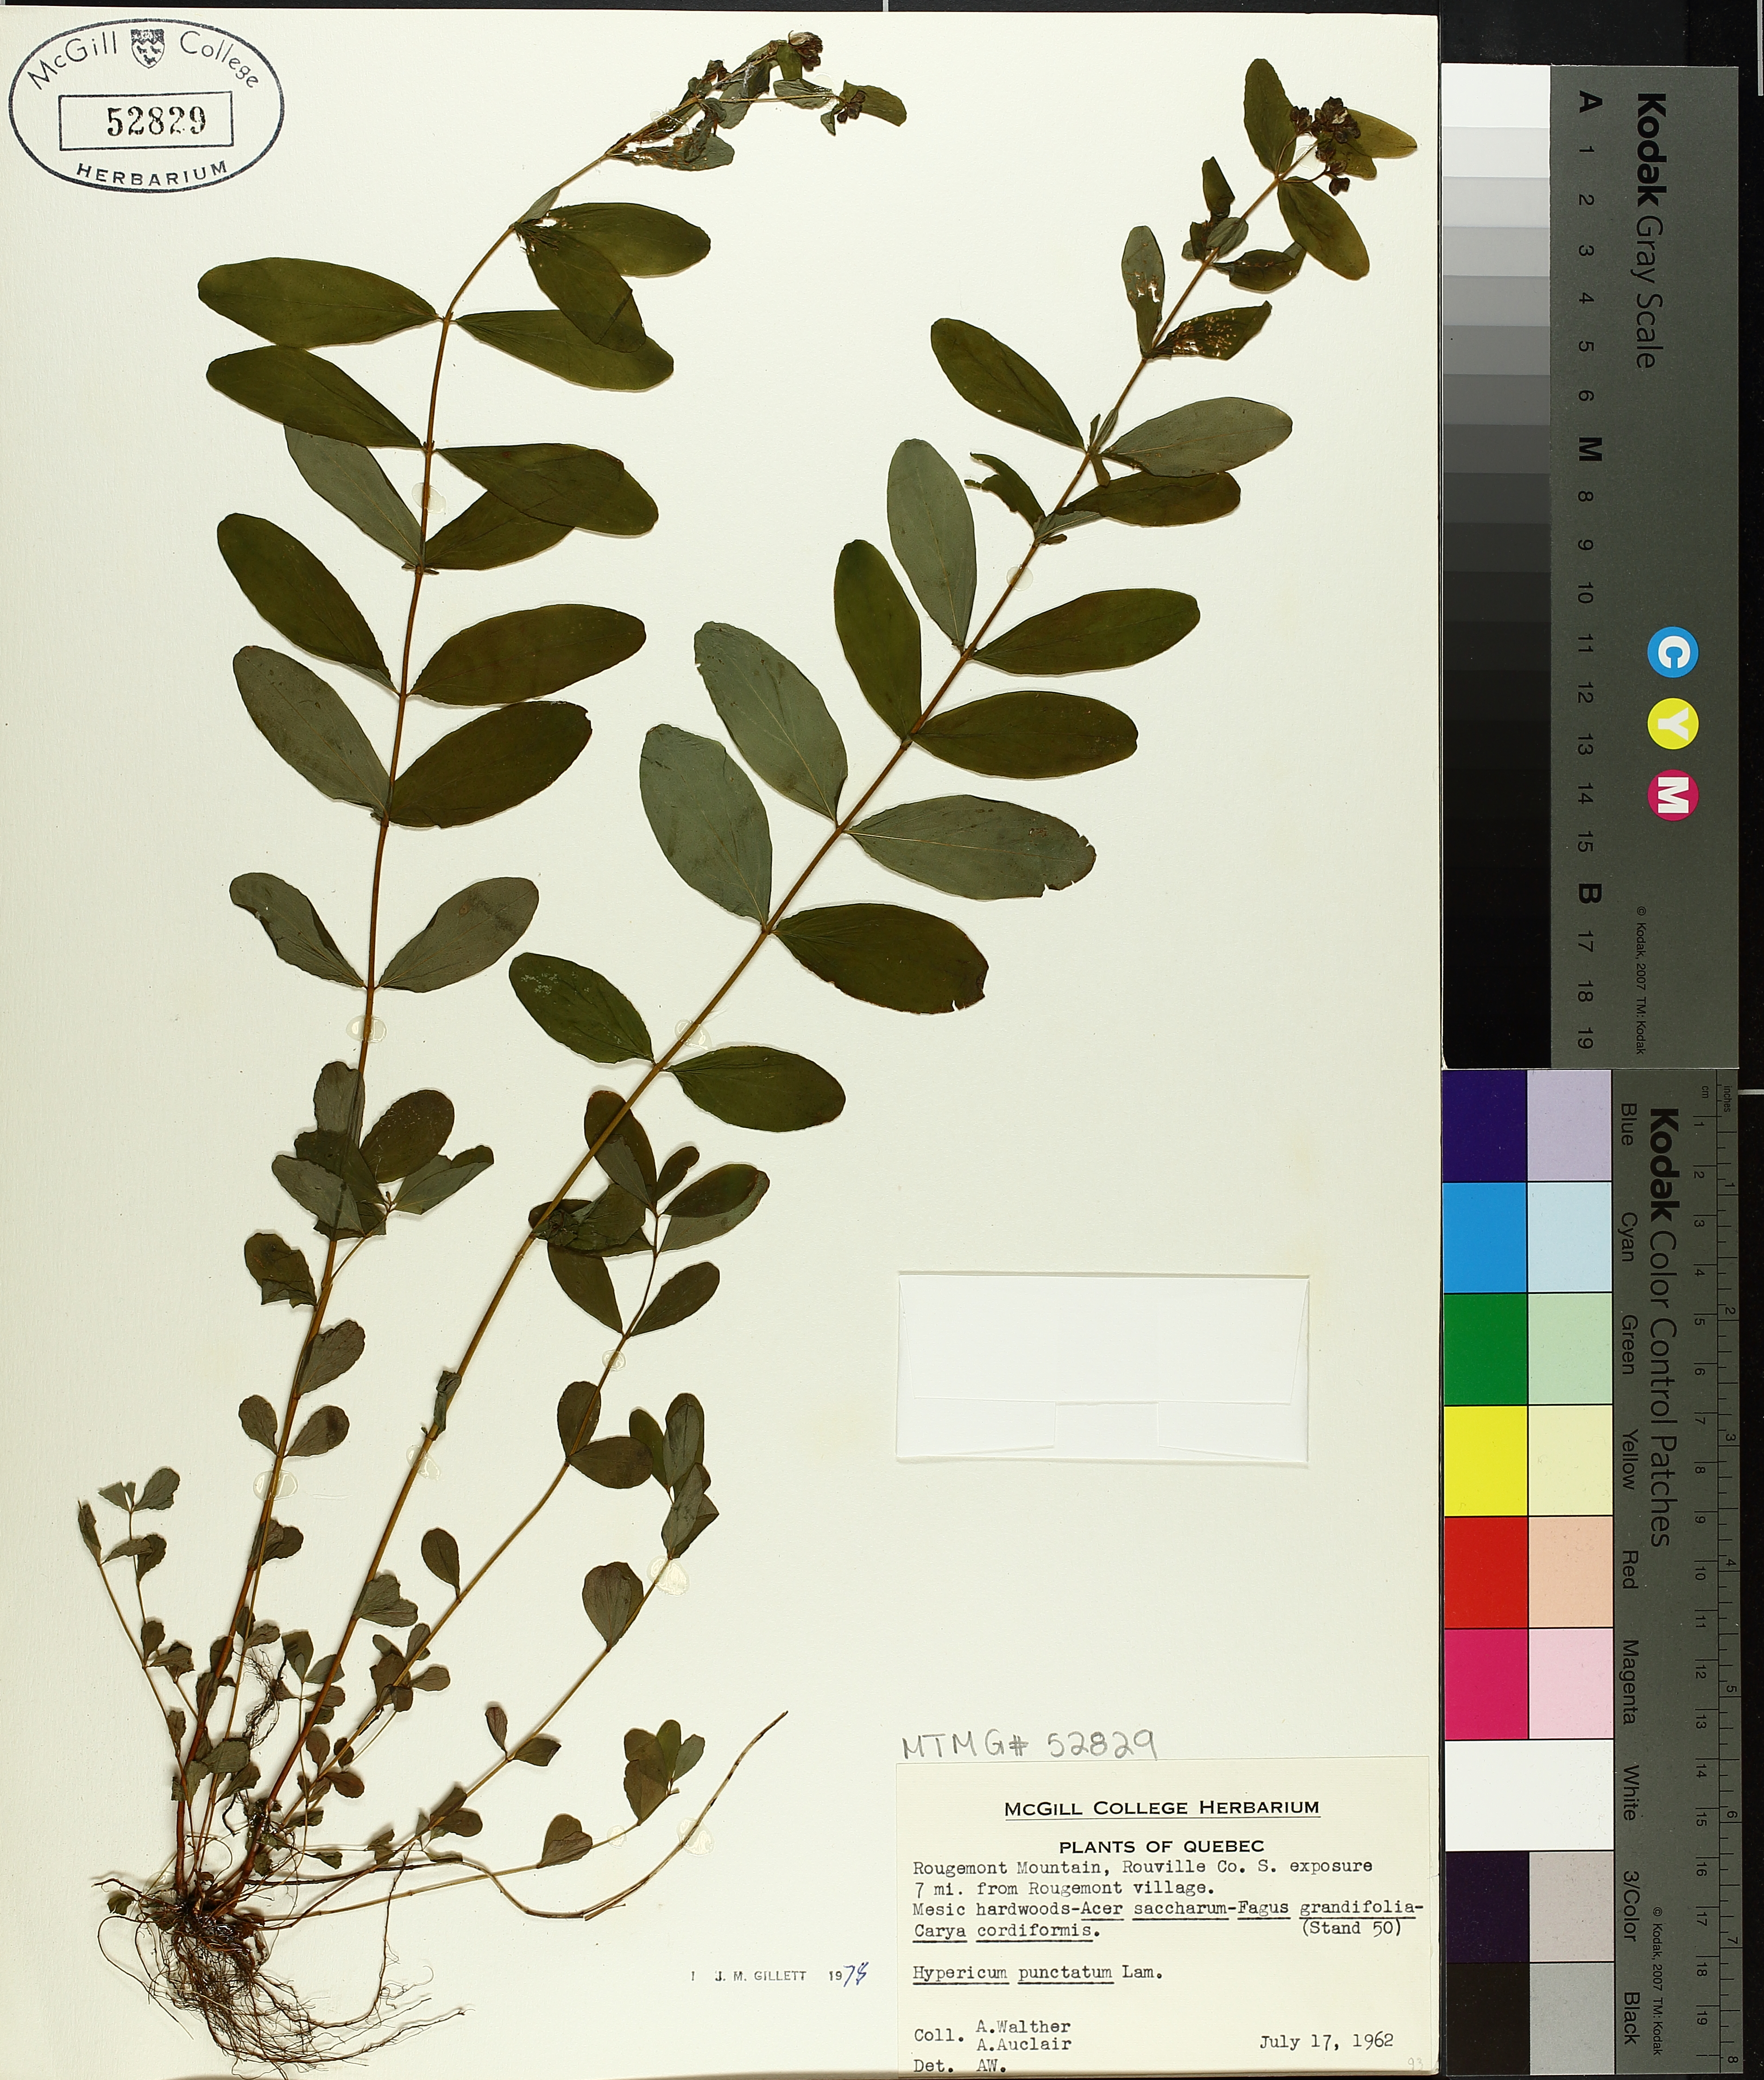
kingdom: Plantae
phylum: Tracheophyta
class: Magnoliopsida
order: Malpighiales
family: Hypericaceae
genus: Hypericum
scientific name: Hypericum punctatum
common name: Spotted st. john's-wort
